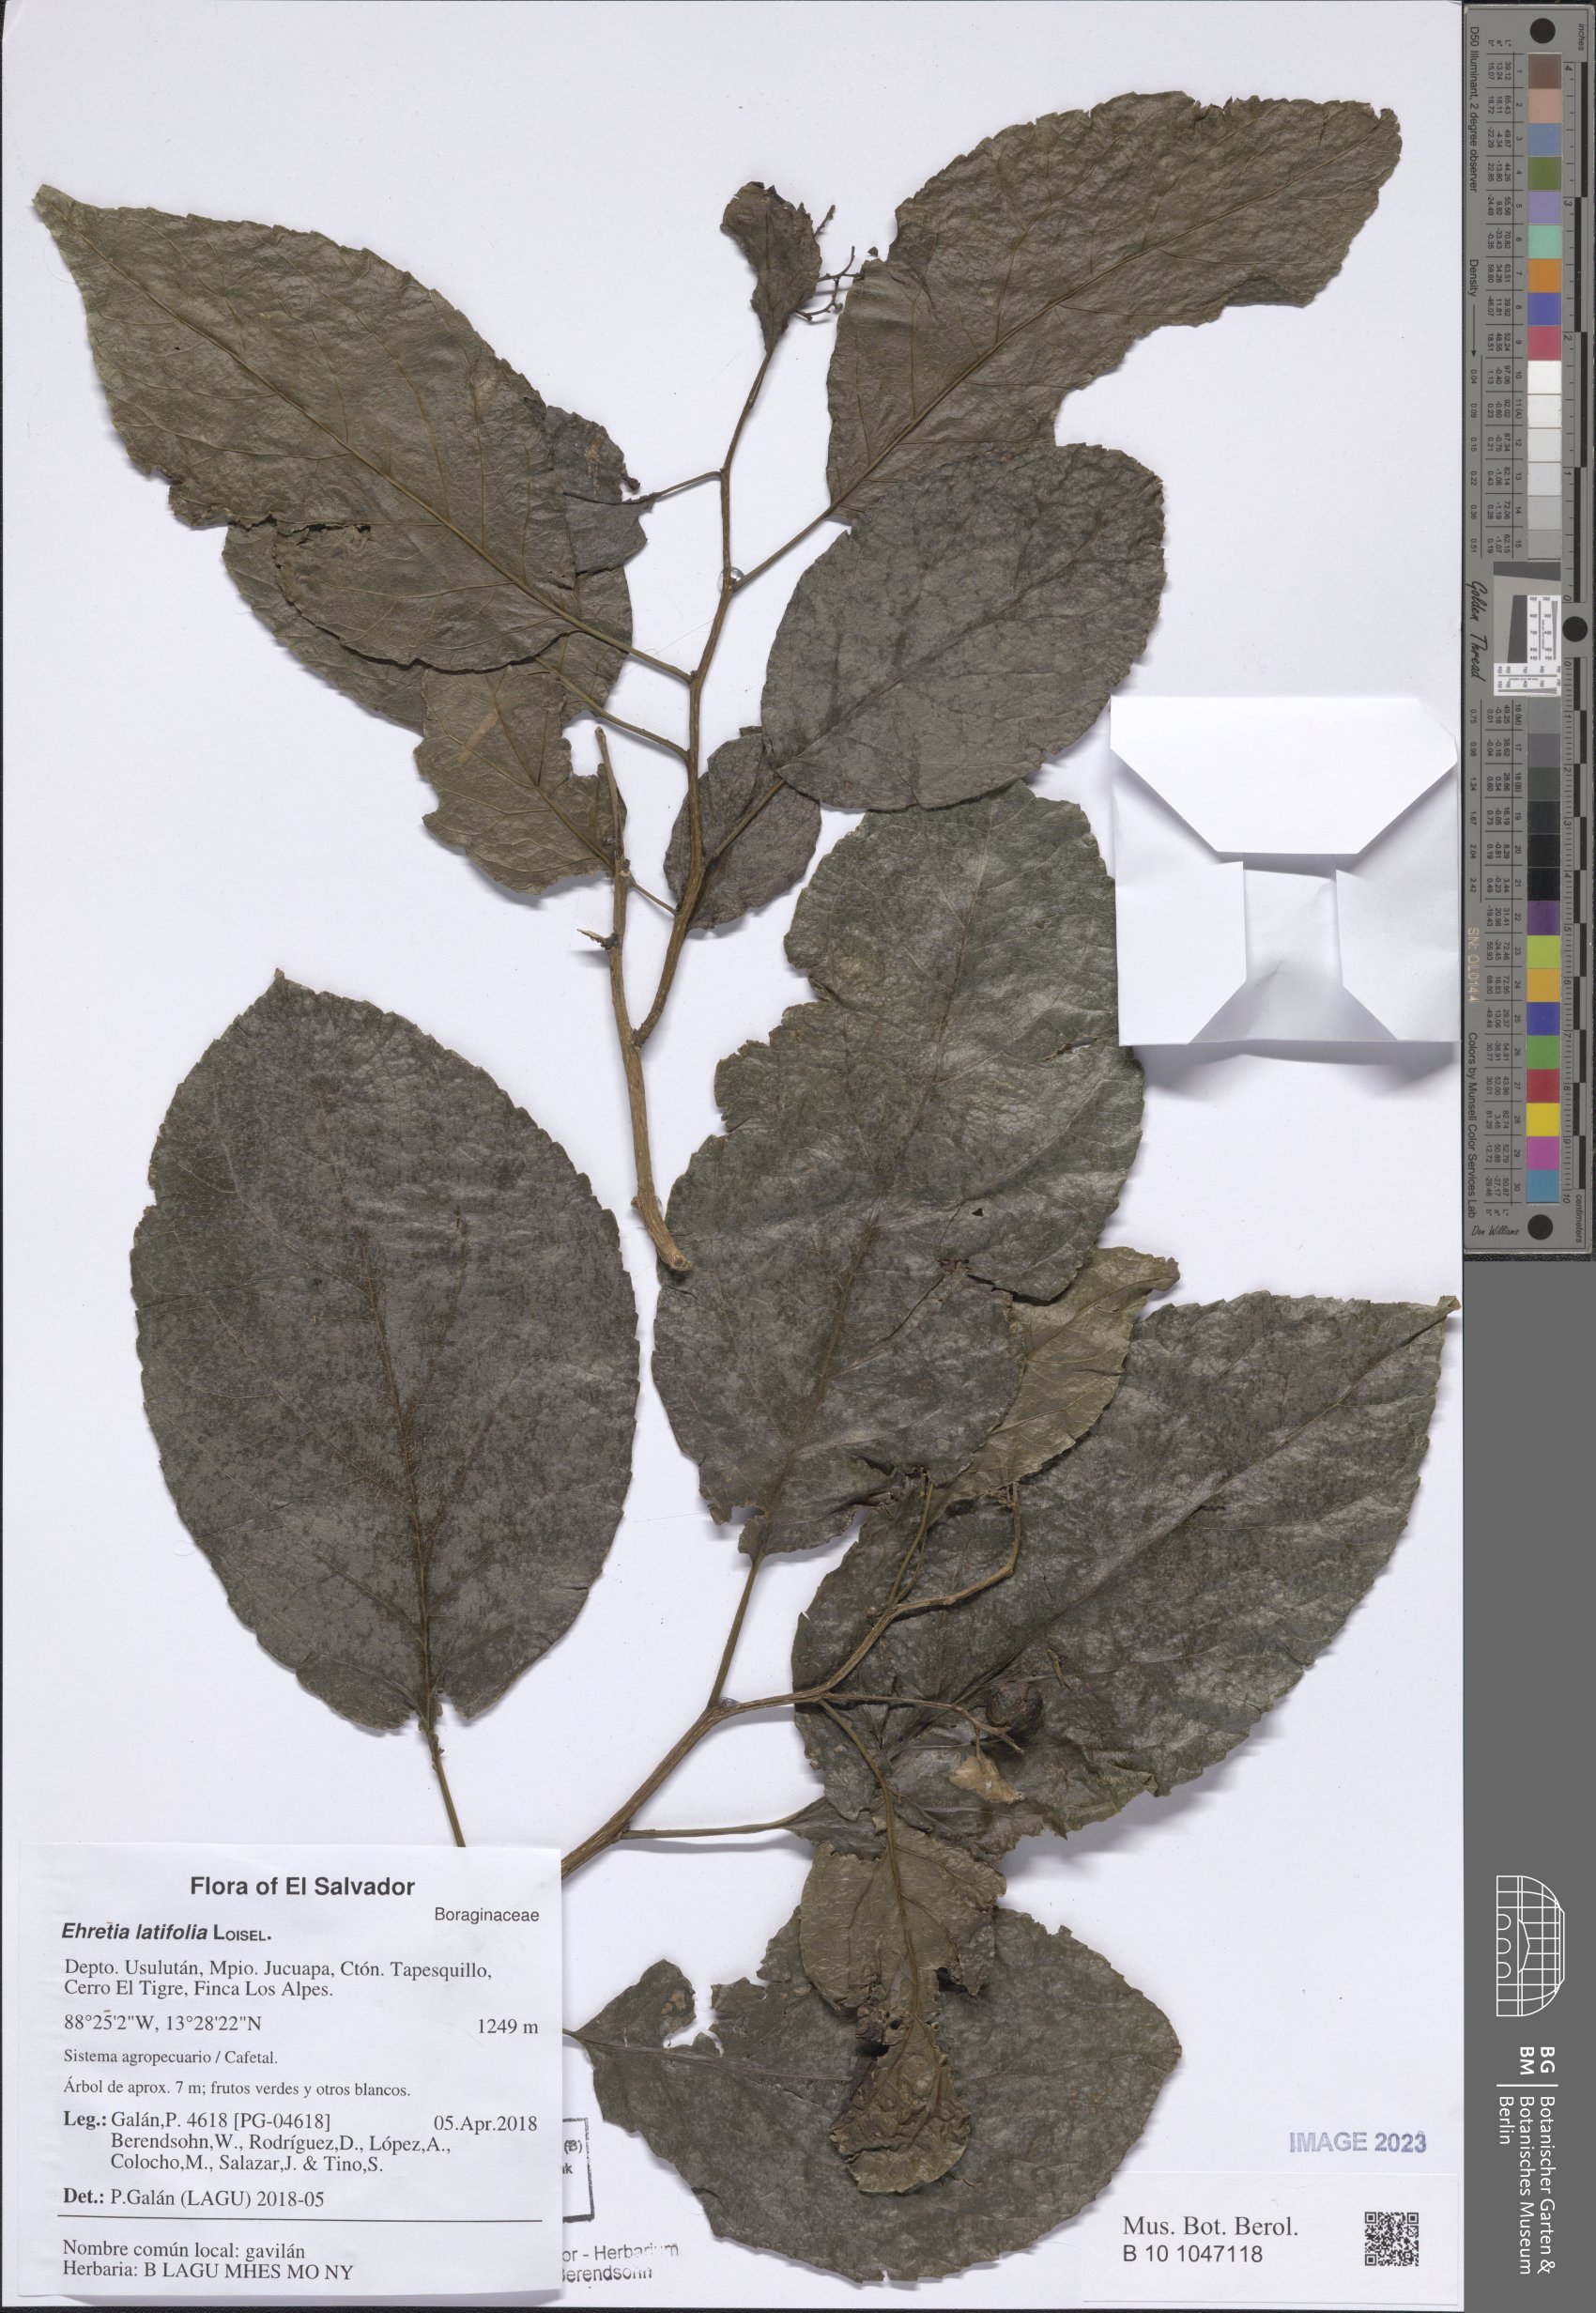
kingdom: Plantae
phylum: Tracheophyta
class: Magnoliopsida
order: Boraginales
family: Ehretiaceae
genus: Ehretia
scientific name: Ehretia latifolia
